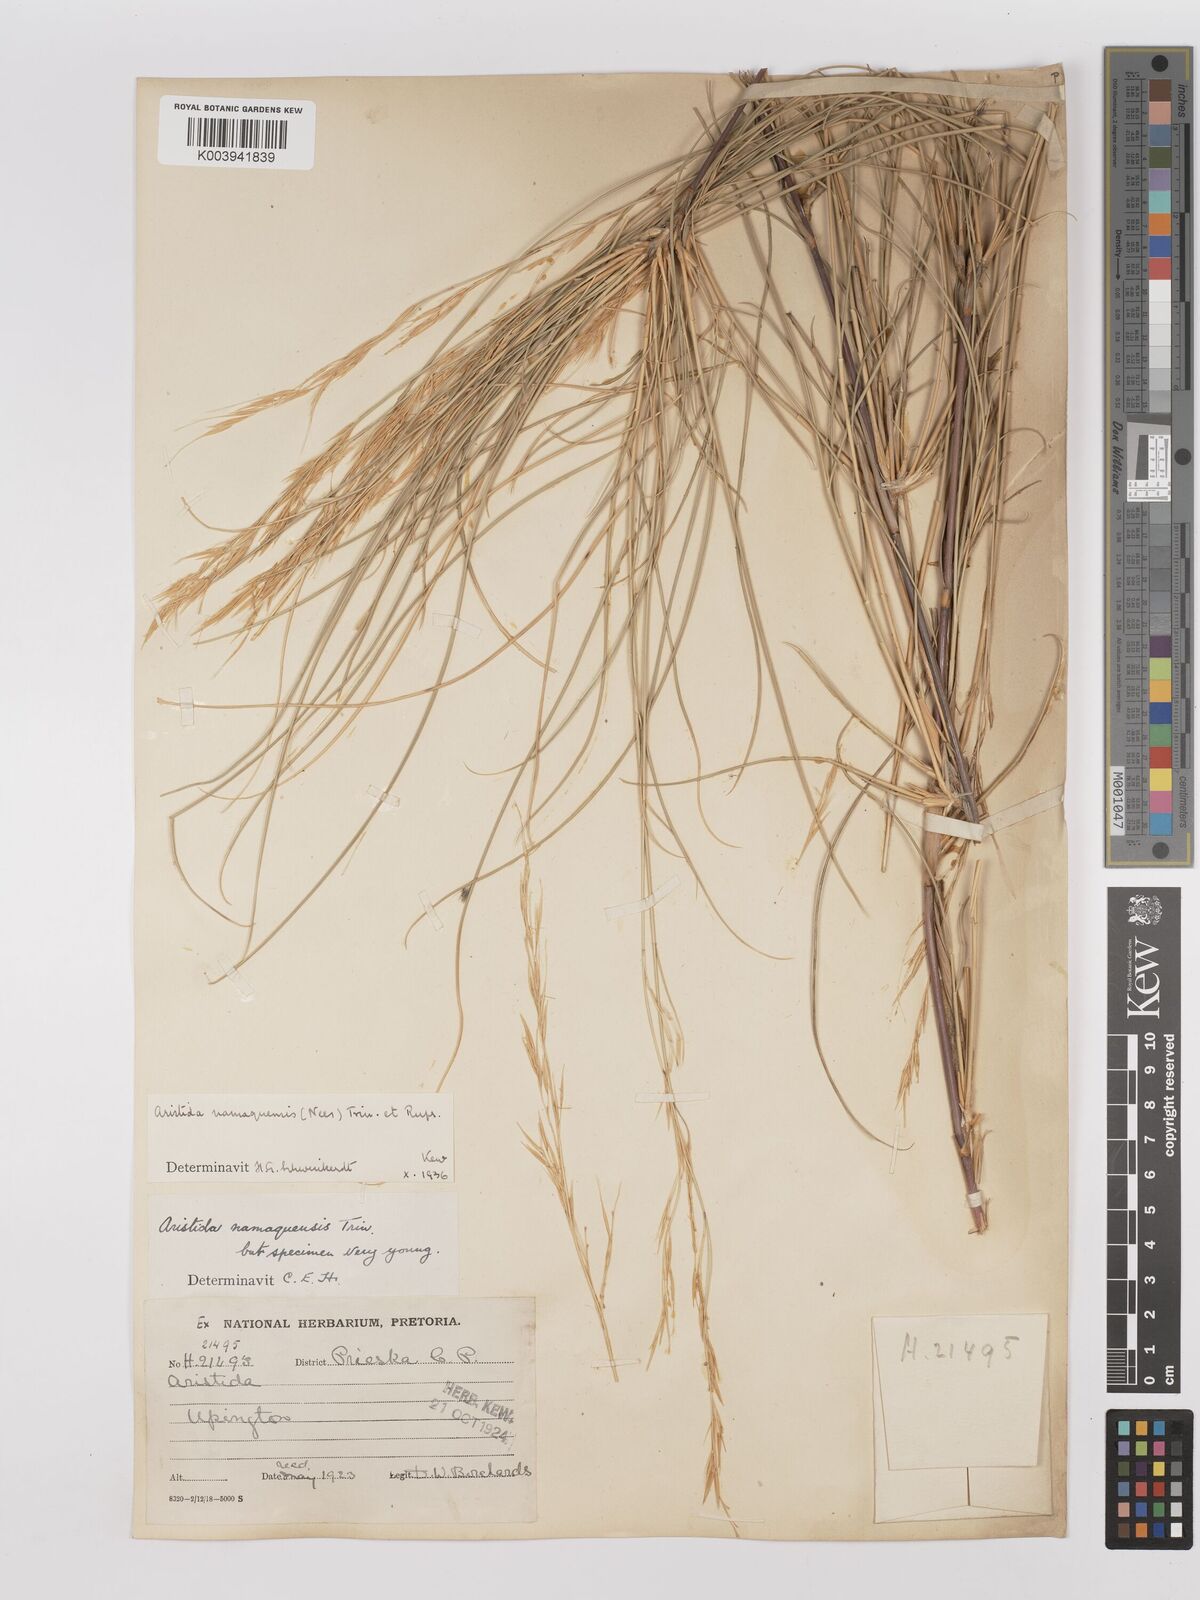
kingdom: Plantae
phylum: Tracheophyta
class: Liliopsida
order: Poales
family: Poaceae
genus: Stipagrostis
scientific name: Stipagrostis namaquensis
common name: River bushman grass
